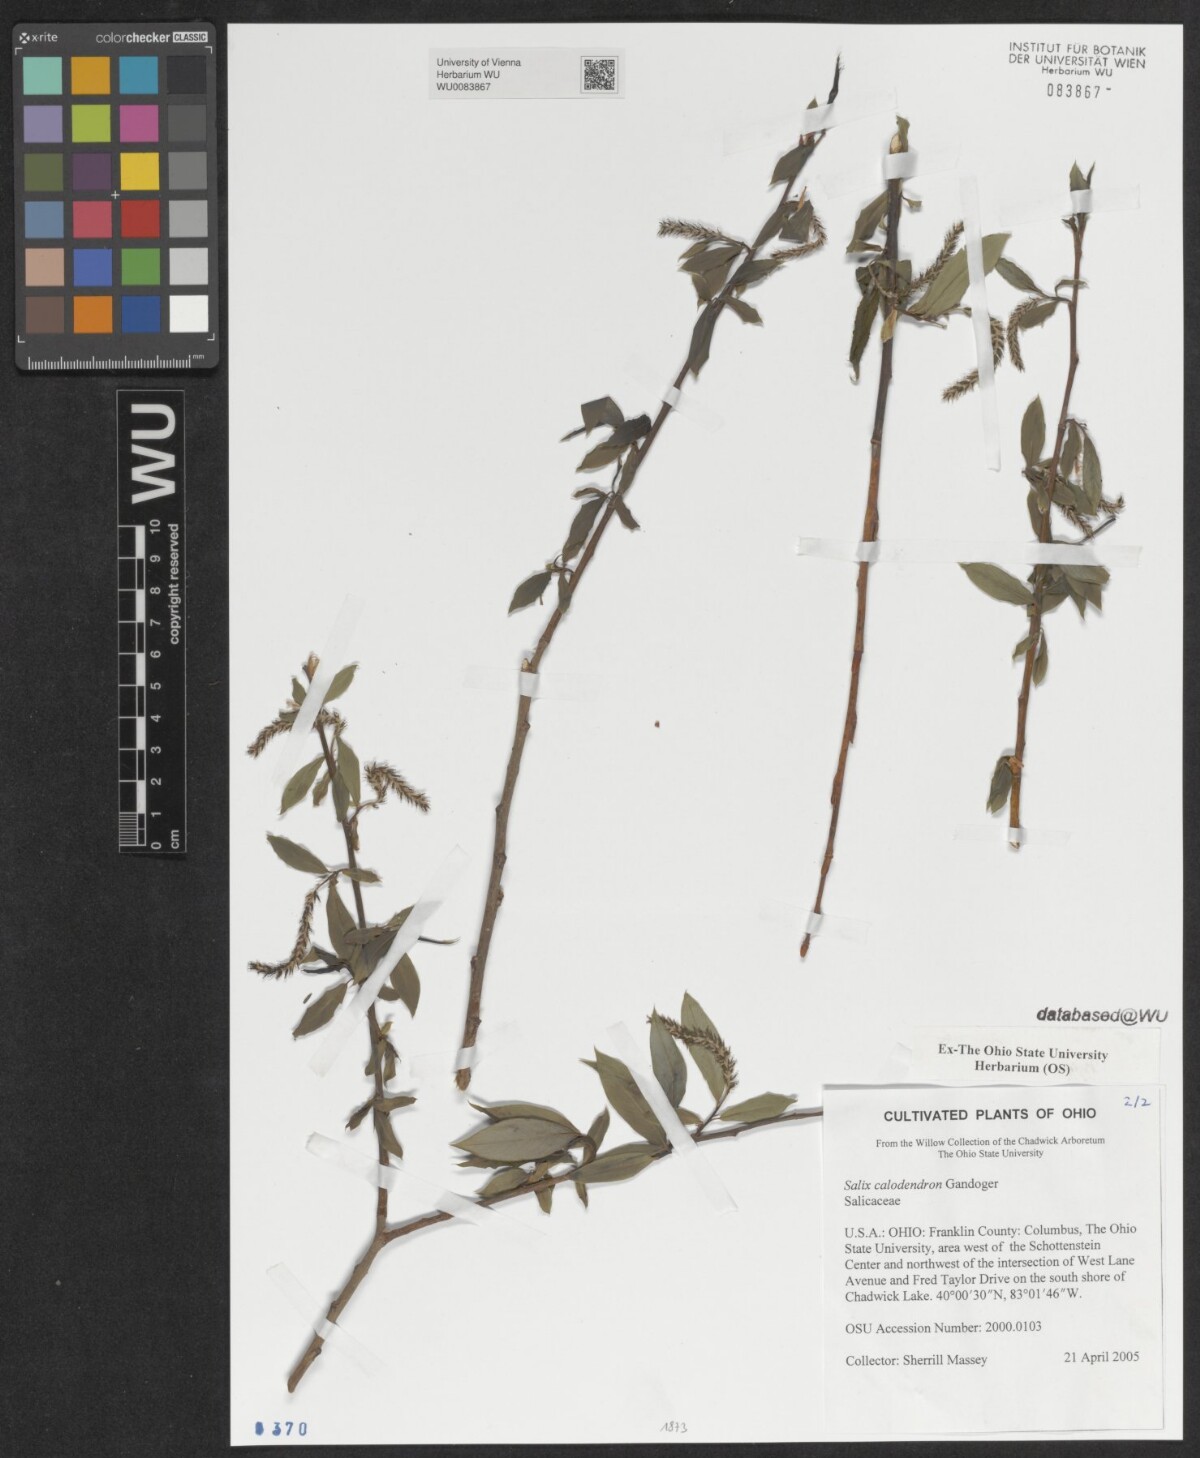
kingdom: Plantae
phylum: Tracheophyta
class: Magnoliopsida
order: Malpighiales
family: Salicaceae
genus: Salix
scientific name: Salix calodendron
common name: Holme willow
